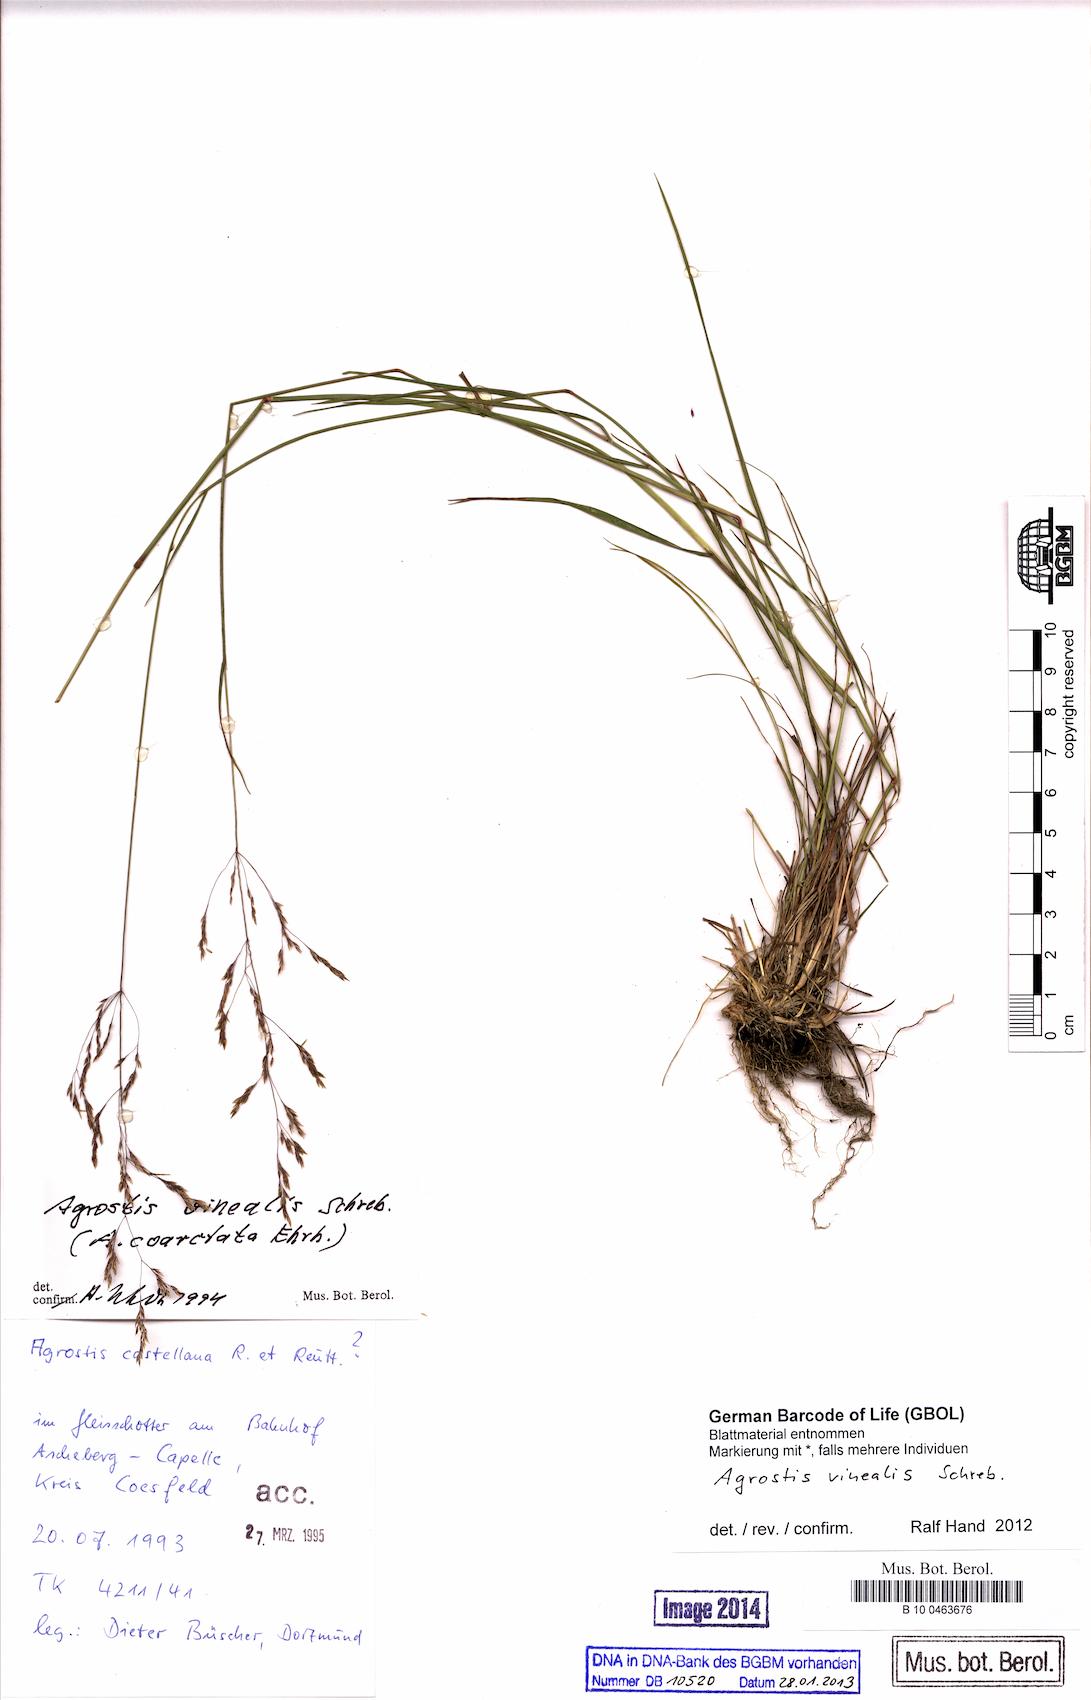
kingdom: Plantae
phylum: Tracheophyta
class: Liliopsida
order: Poales
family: Poaceae
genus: Agrostis
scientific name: Agrostis vinealis
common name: Brown bent
